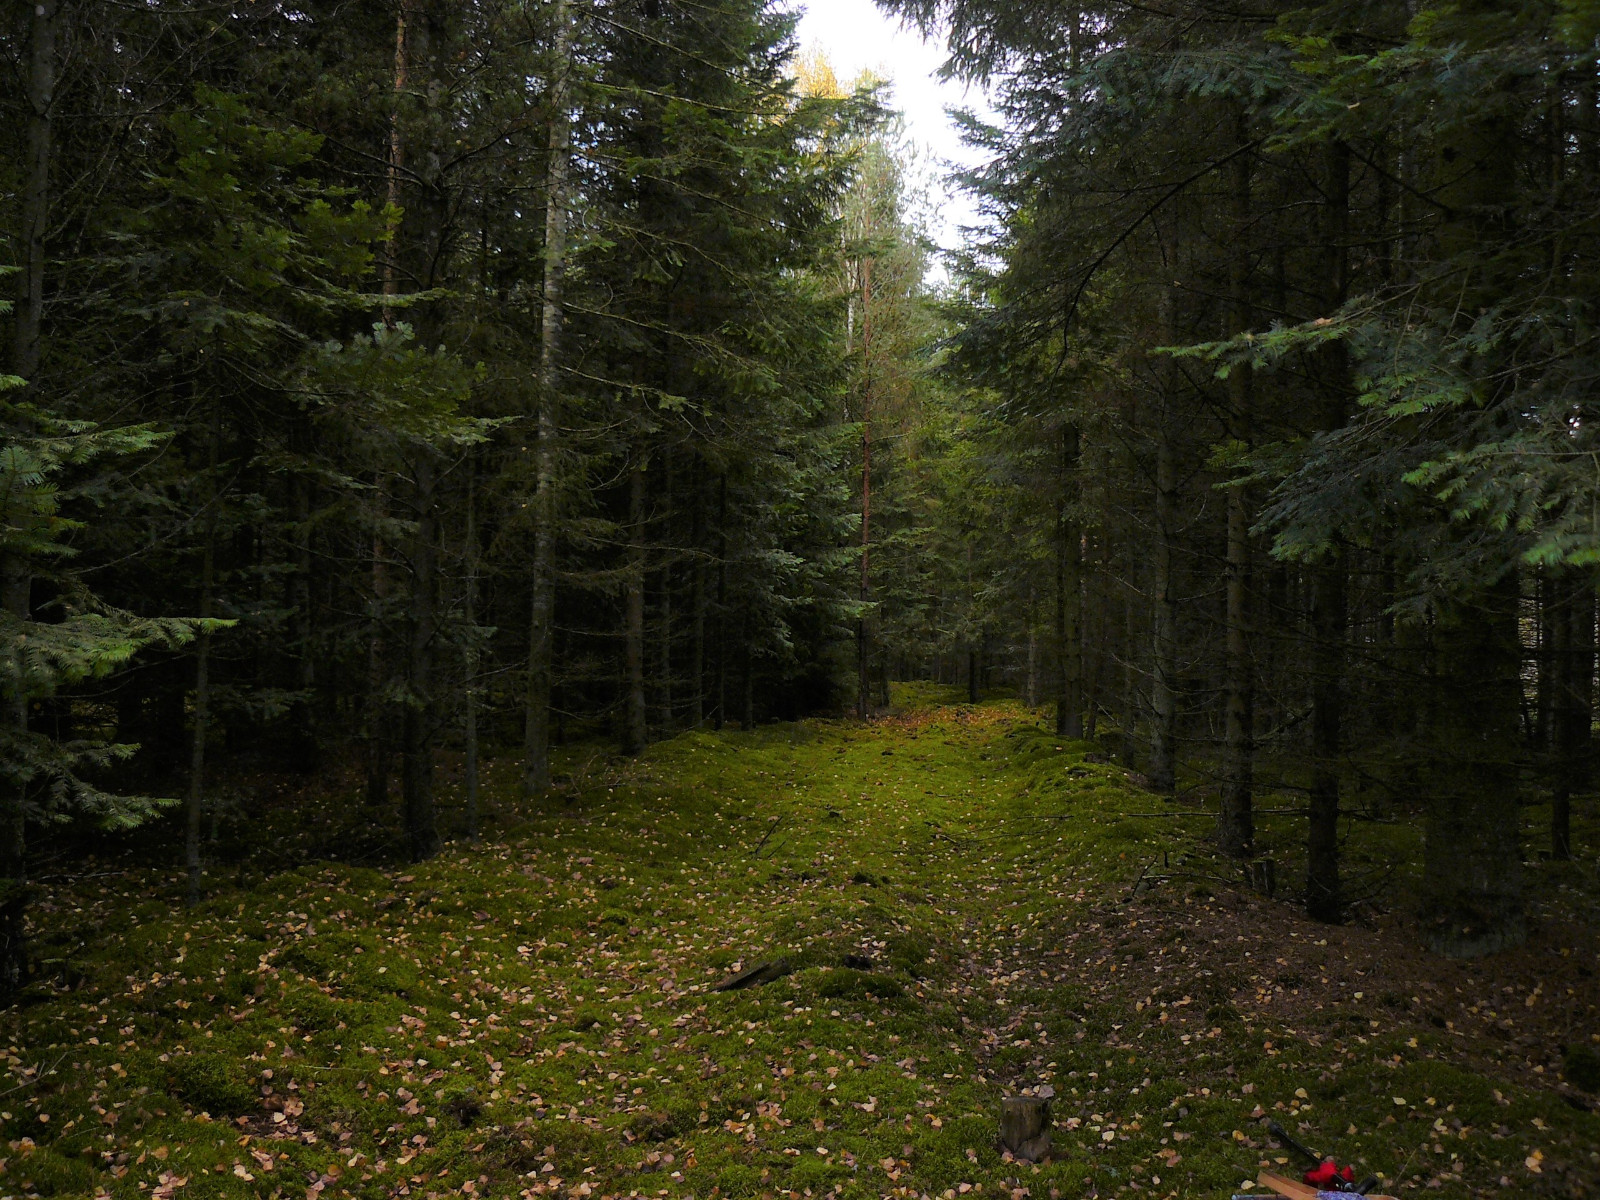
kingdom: Fungi
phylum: Basidiomycota
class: Agaricomycetes
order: Thelephorales
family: Thelephoraceae
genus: Phellodon
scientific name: Phellodon tomentosus
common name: vellugtende duftpigsvamp
